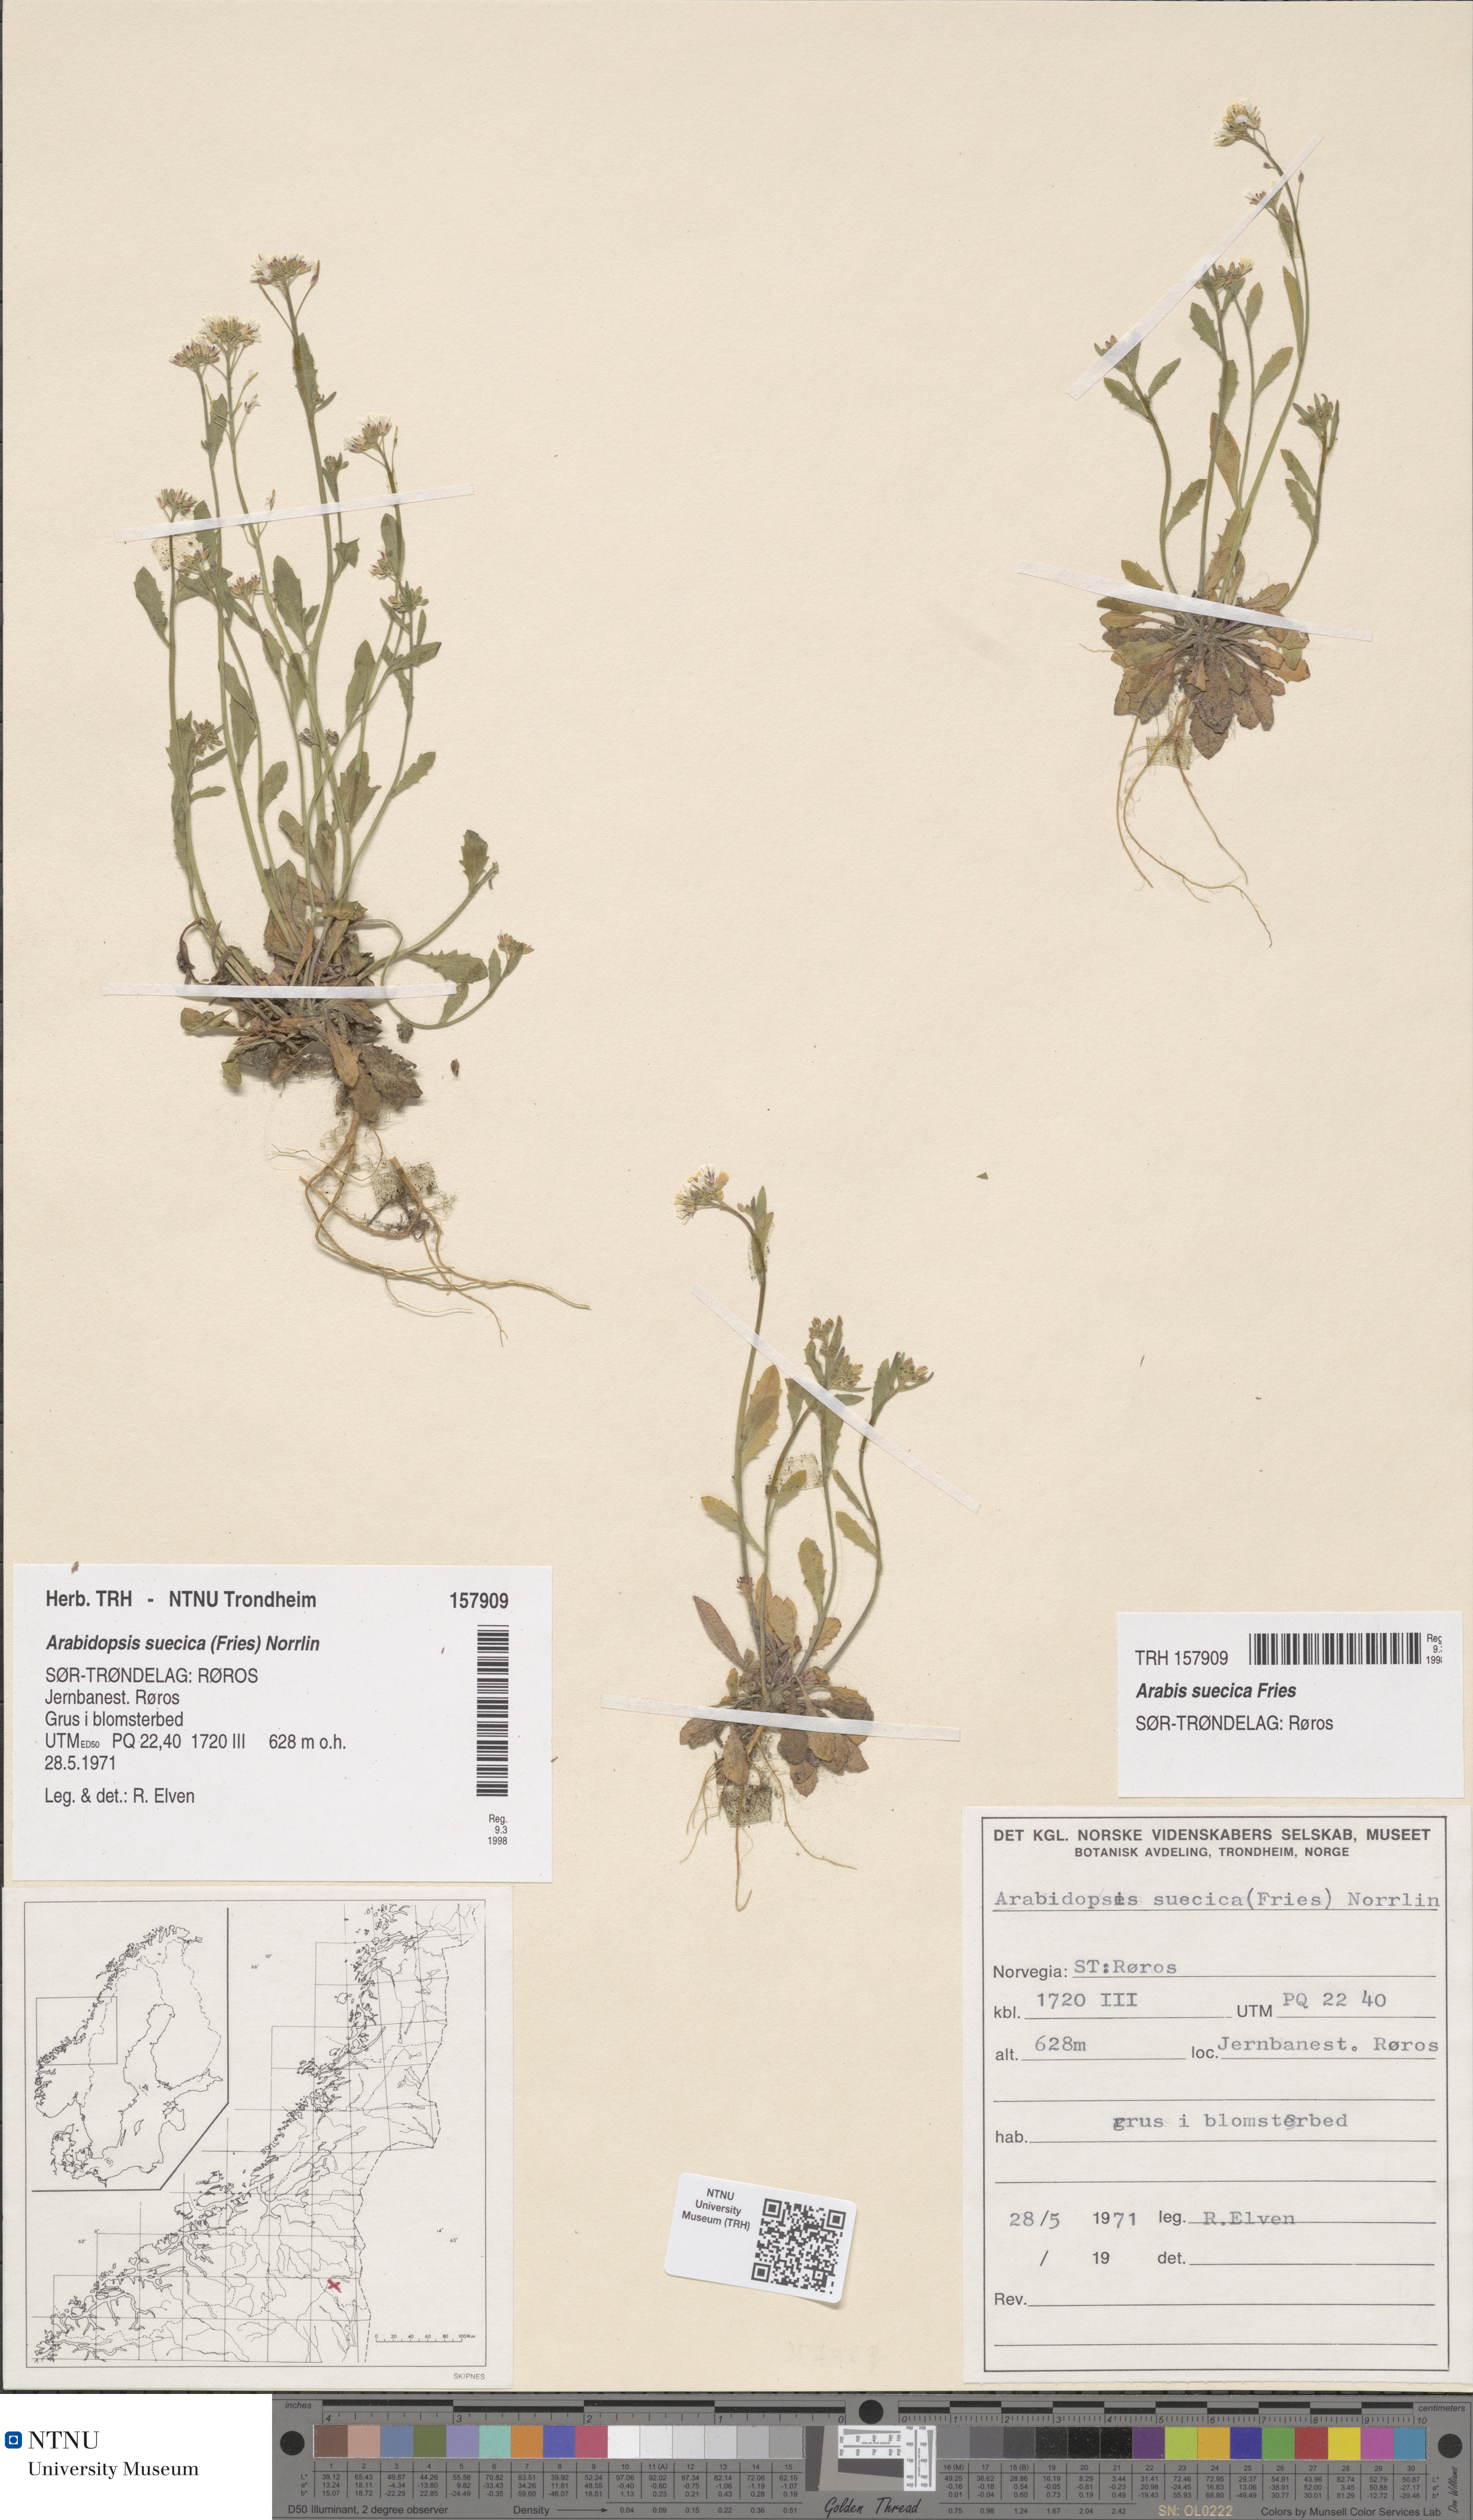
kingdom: Plantae
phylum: Tracheophyta
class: Magnoliopsida
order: Brassicales
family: Brassicaceae
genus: Arabidopsis
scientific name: Arabidopsis suecica
